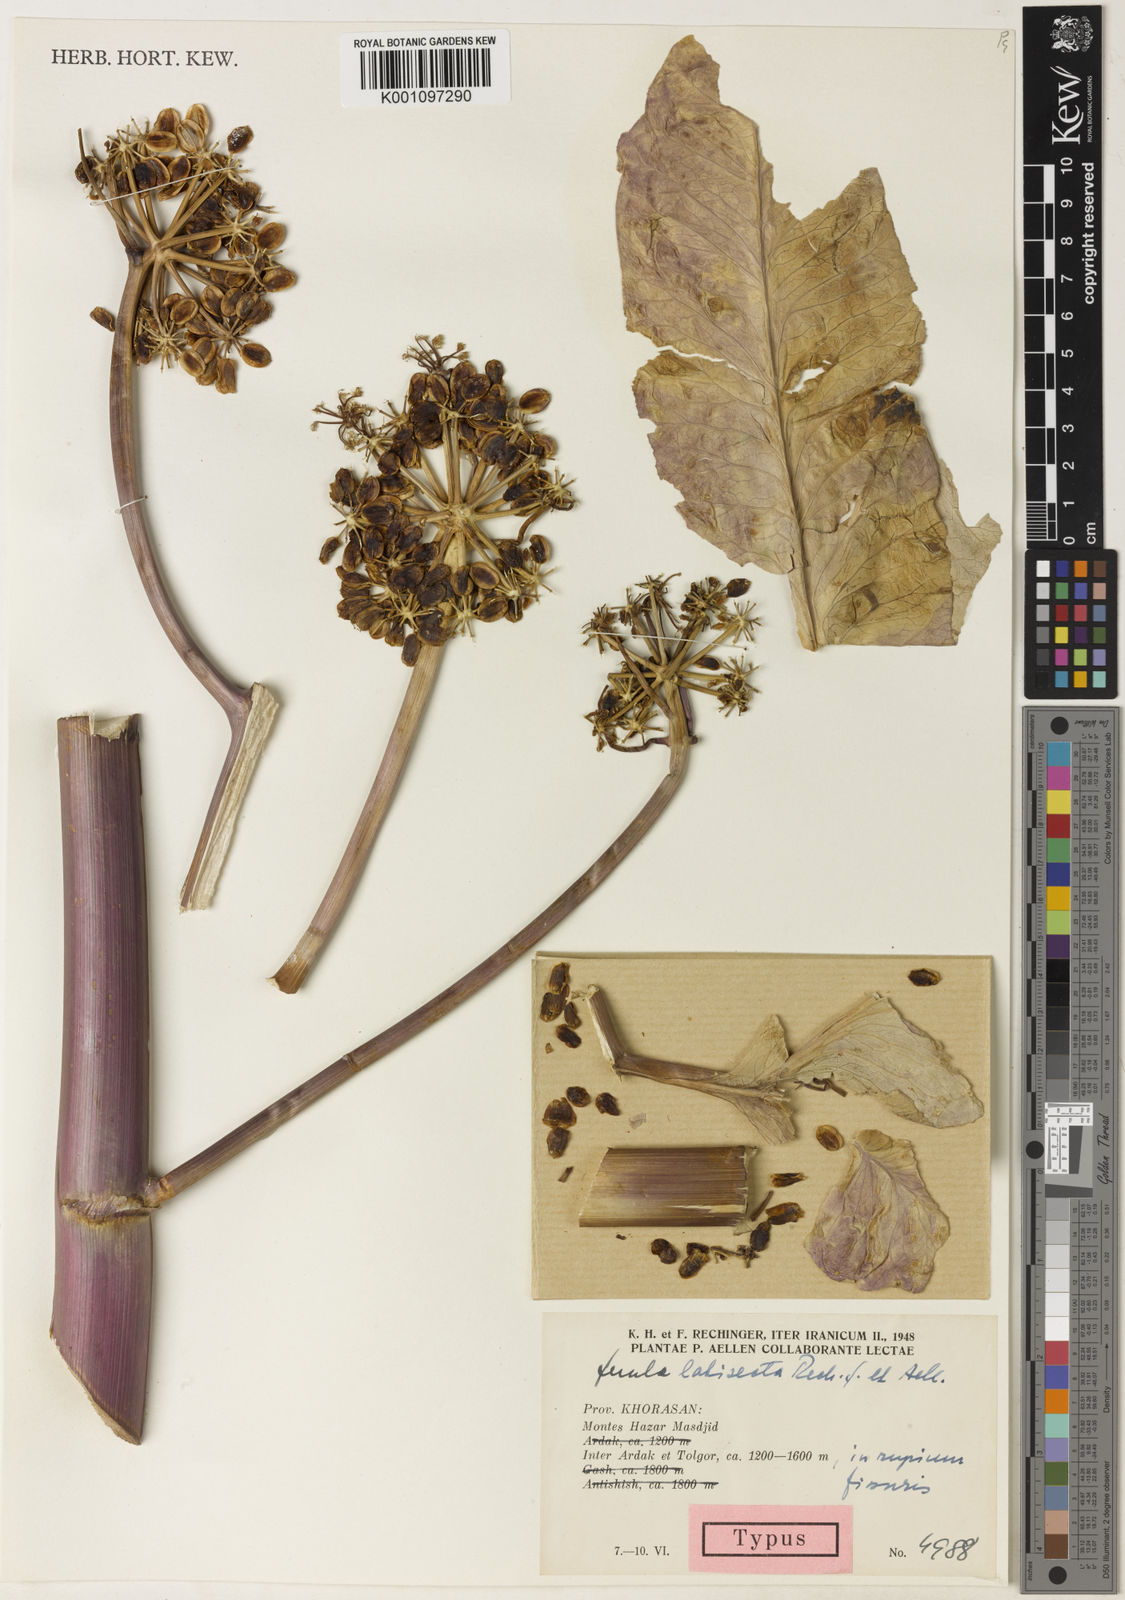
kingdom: Plantae
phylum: Tracheophyta
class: Magnoliopsida
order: Apiales
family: Apiaceae
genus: Ferula
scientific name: Ferula latisecta
